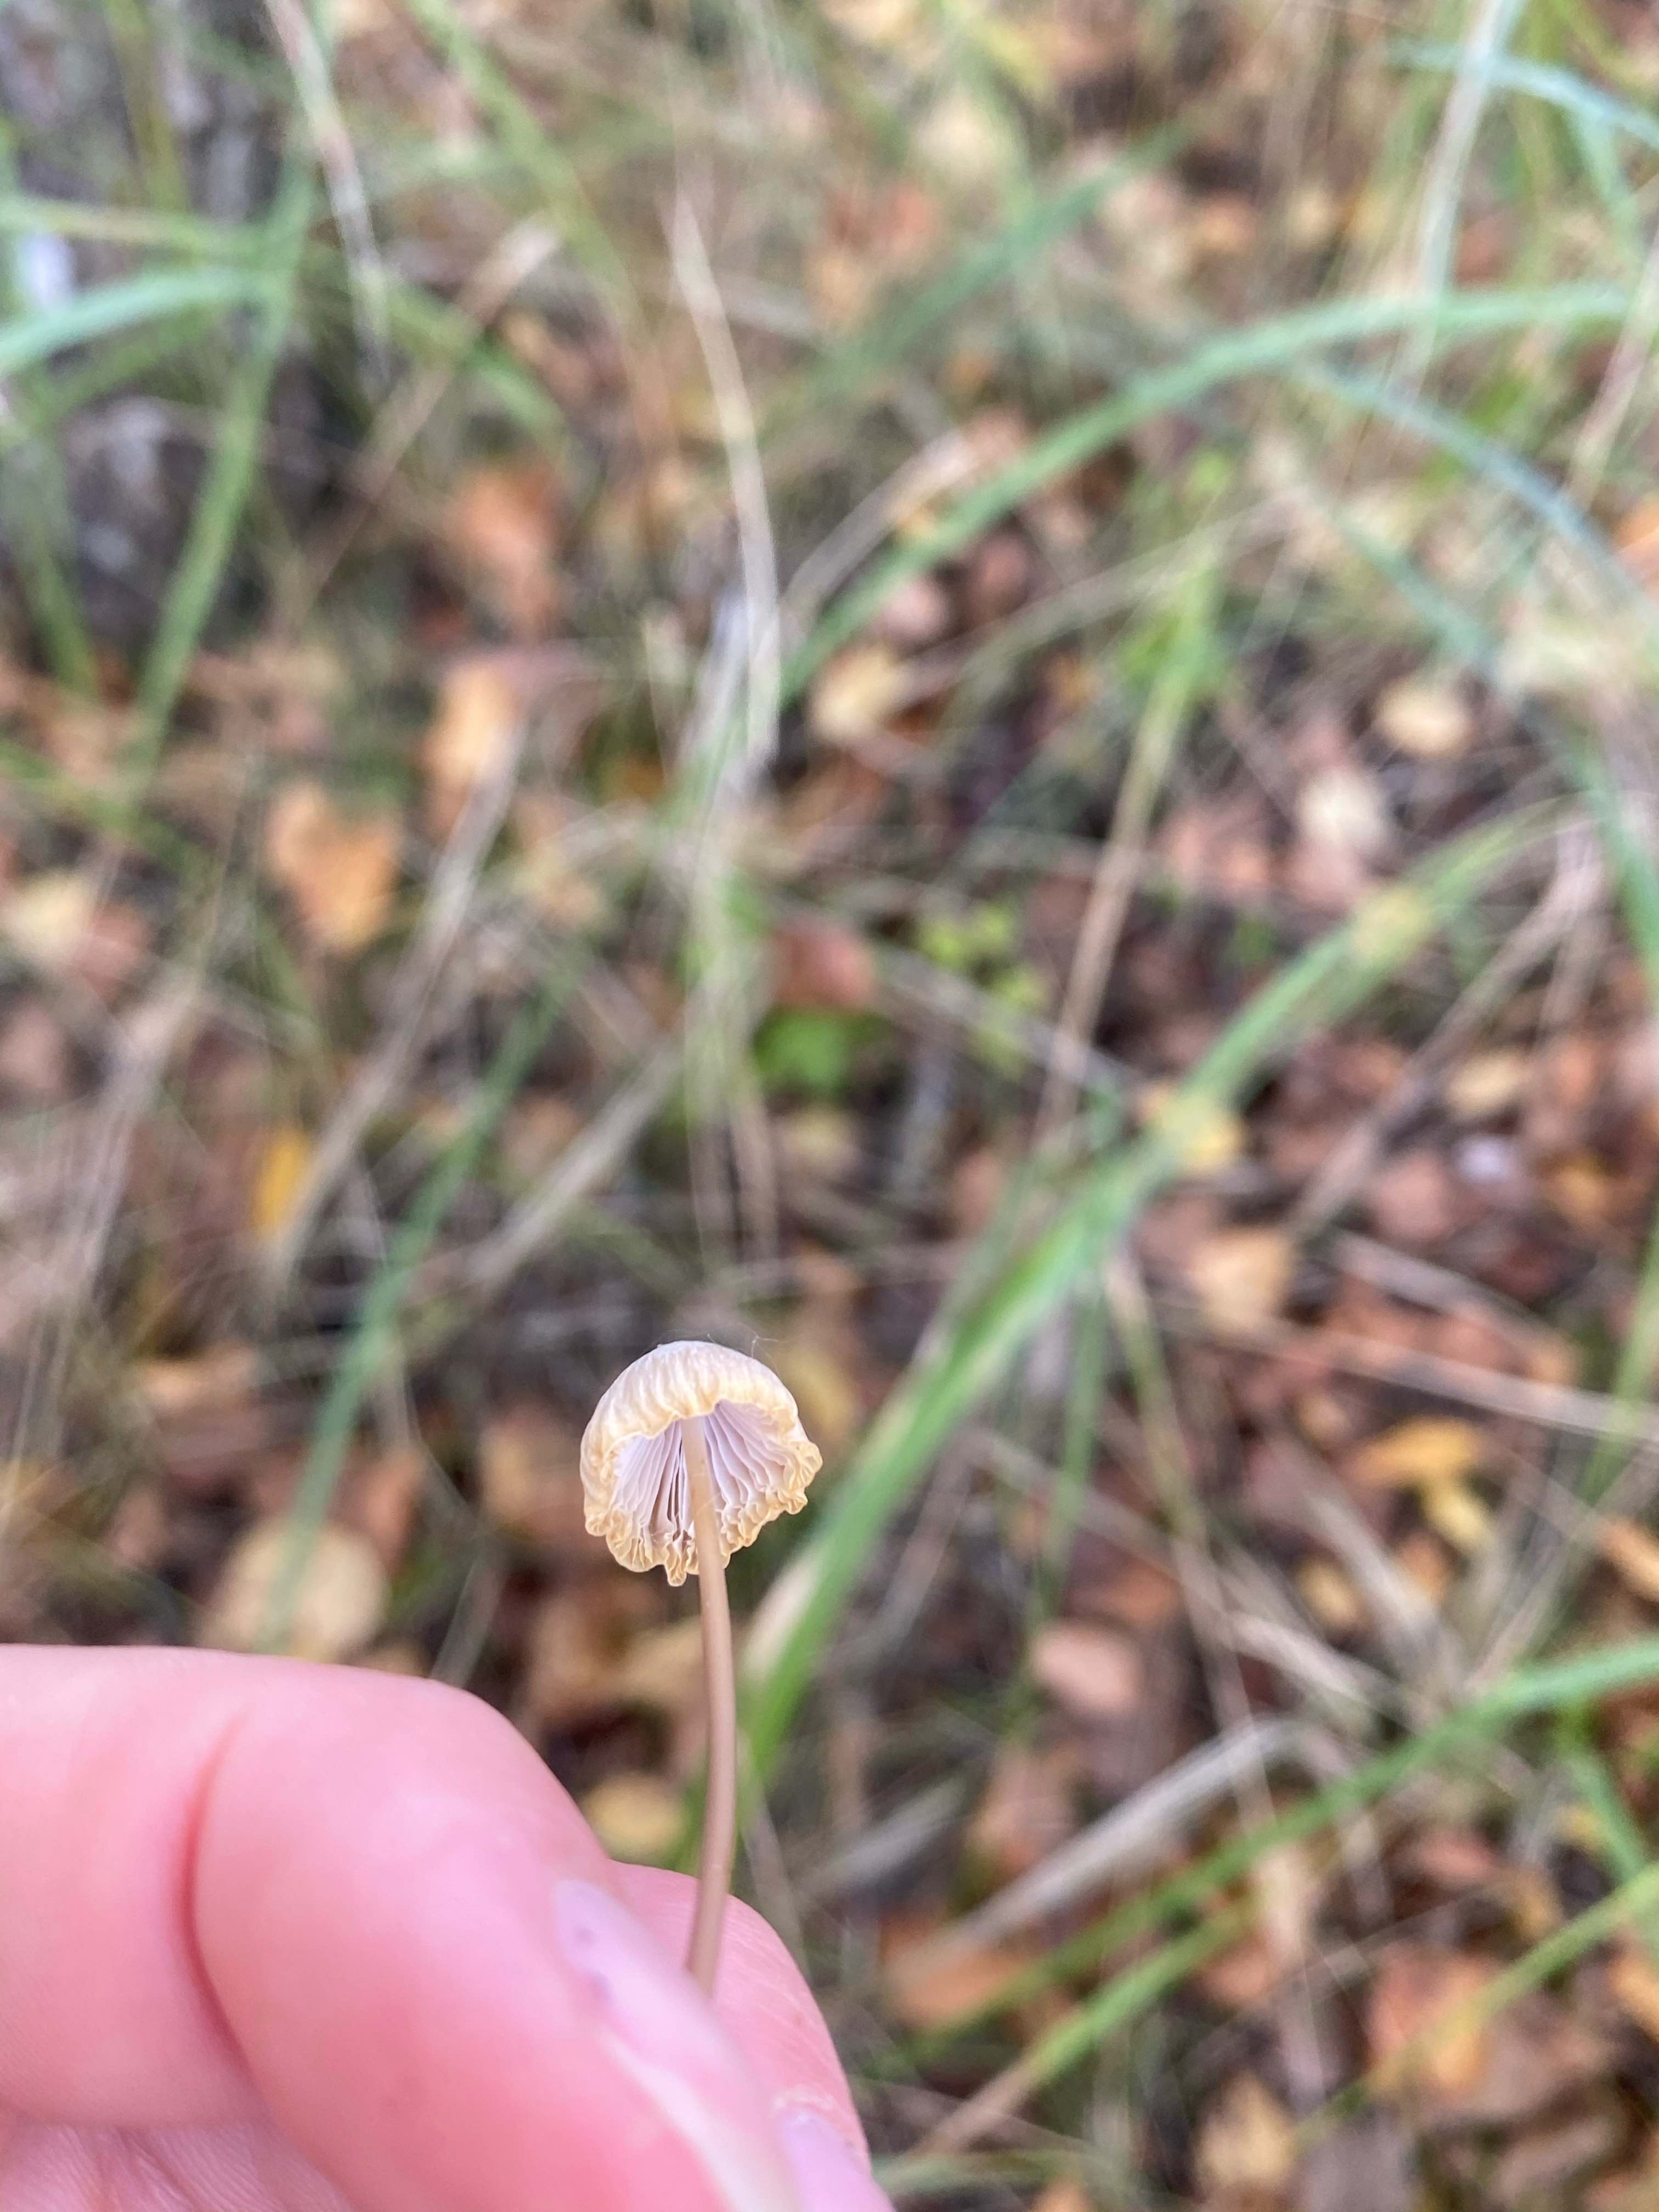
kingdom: Fungi
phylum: Basidiomycota
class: Agaricomycetes
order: Agaricales
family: Mycenaceae
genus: Mycena
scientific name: Mycena
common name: huesvamp
